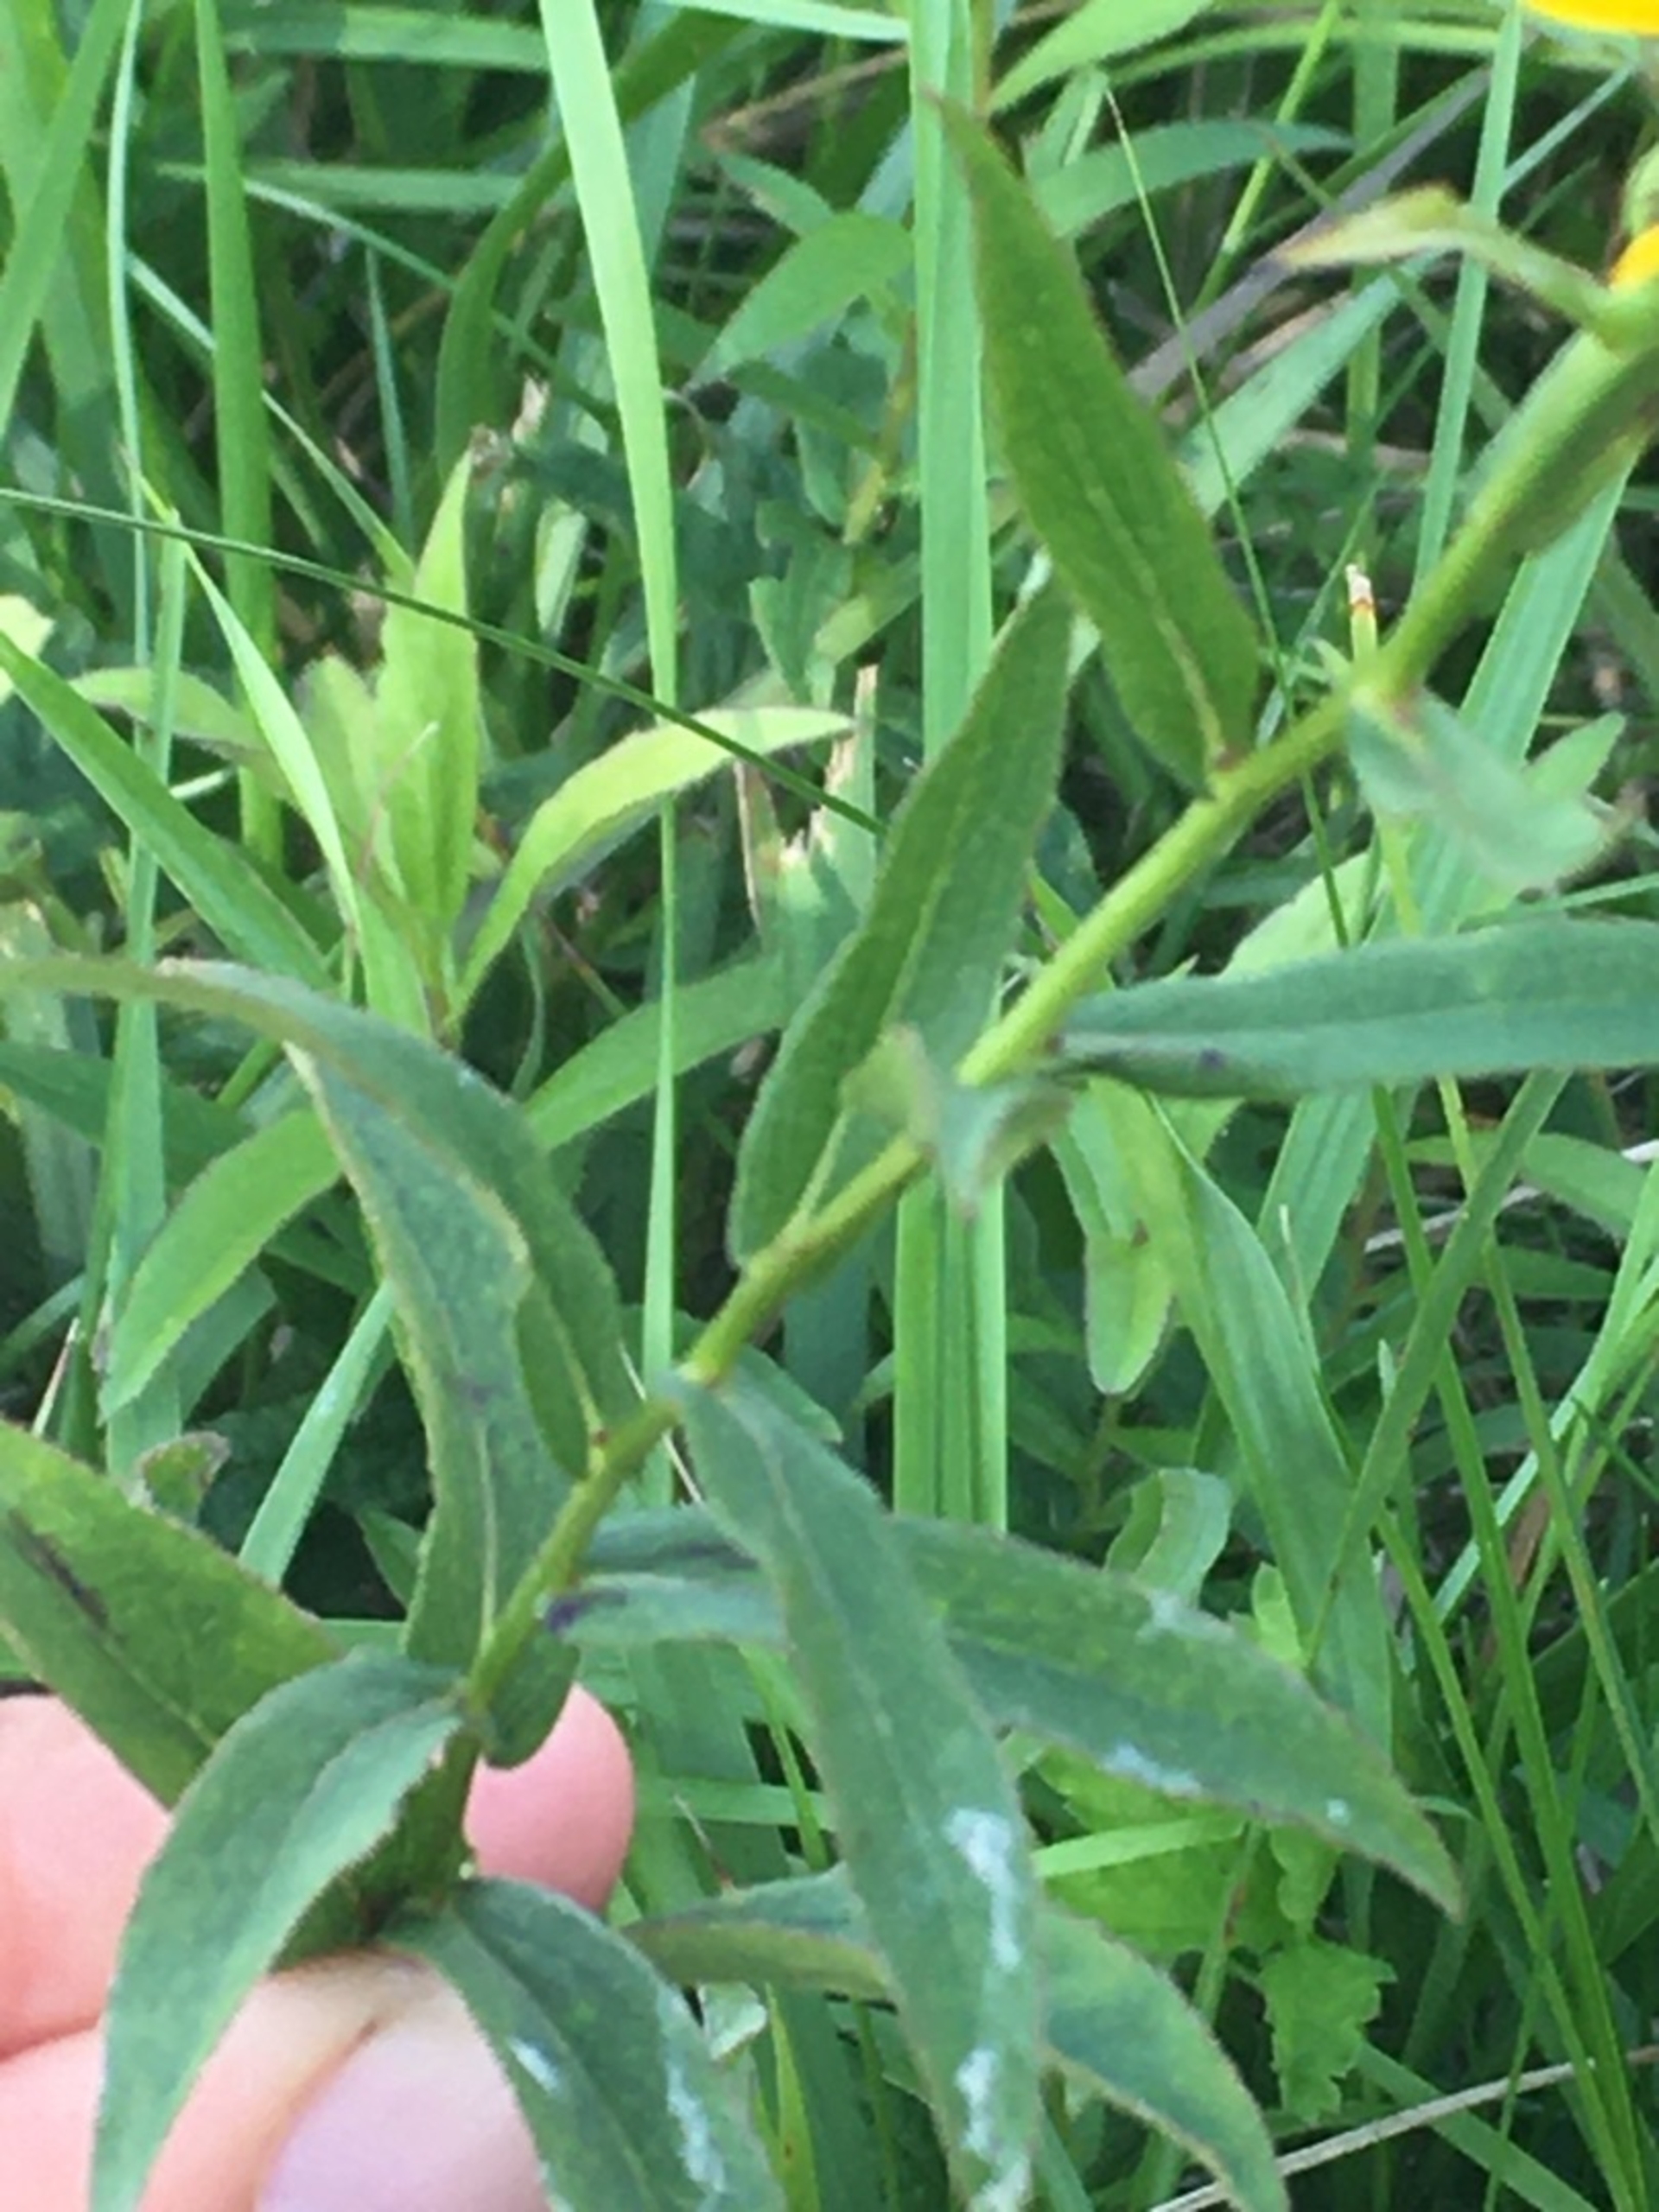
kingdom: Plantae
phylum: Tracheophyta
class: Magnoliopsida
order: Asterales
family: Asteraceae
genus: Pentanema
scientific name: Pentanema salicinum
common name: Pile-alant
